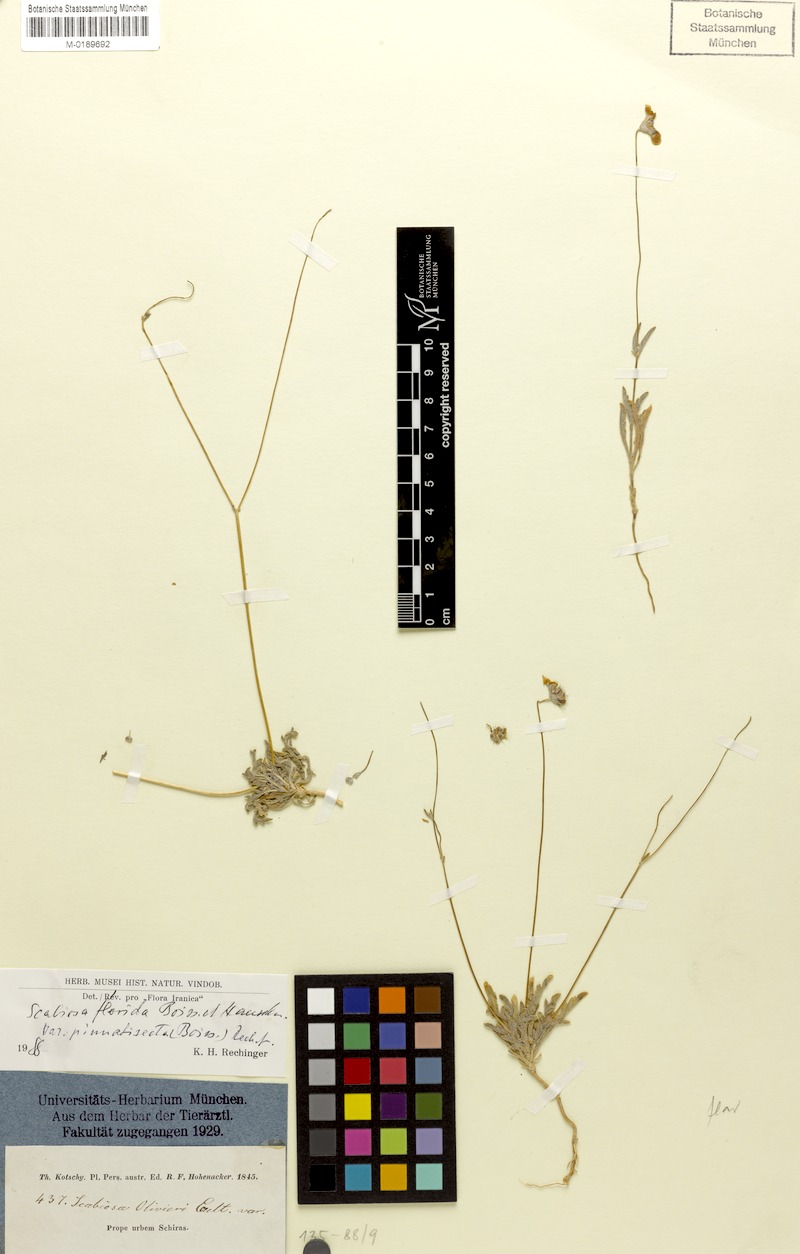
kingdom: Plantae
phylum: Tracheophyta
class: Magnoliopsida
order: Dipsacales
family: Caprifoliaceae
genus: Lomelosia
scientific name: Lomelosia flavida
